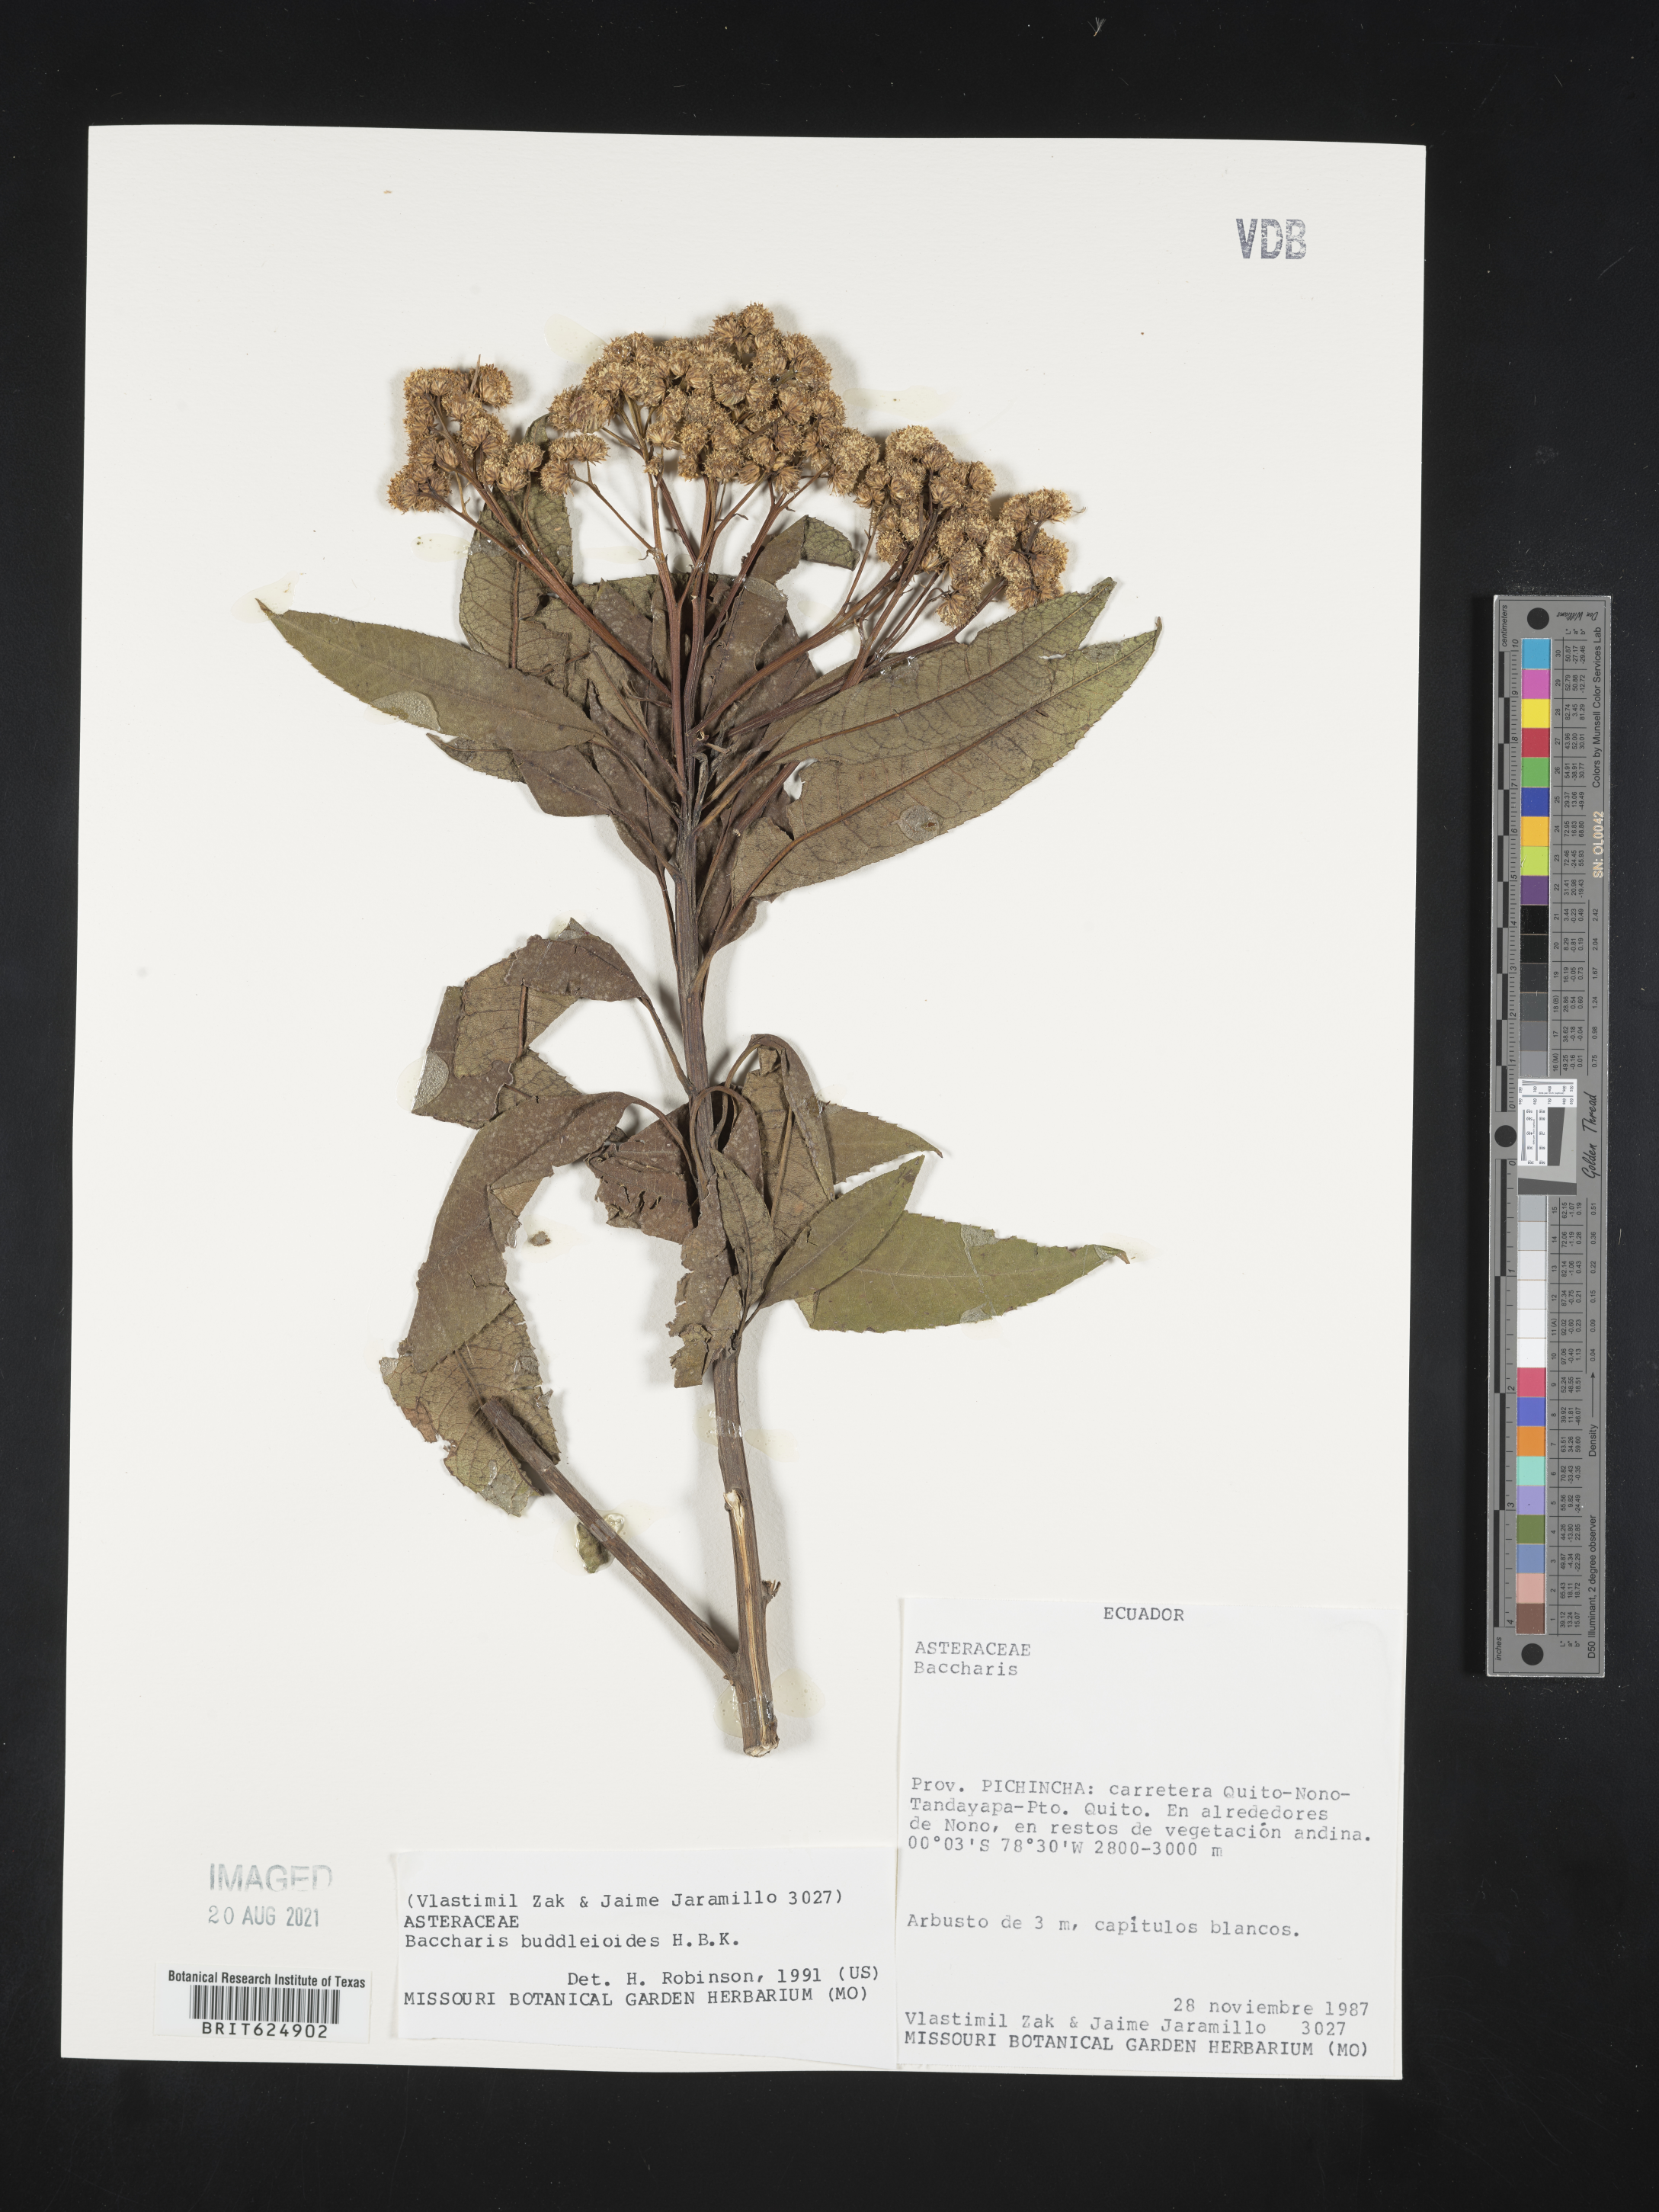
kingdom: Plantae
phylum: Tracheophyta
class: Magnoliopsida
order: Asterales
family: Asteraceae
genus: Baccharis
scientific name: Baccharis salicifolia
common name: Sticky baccharis
